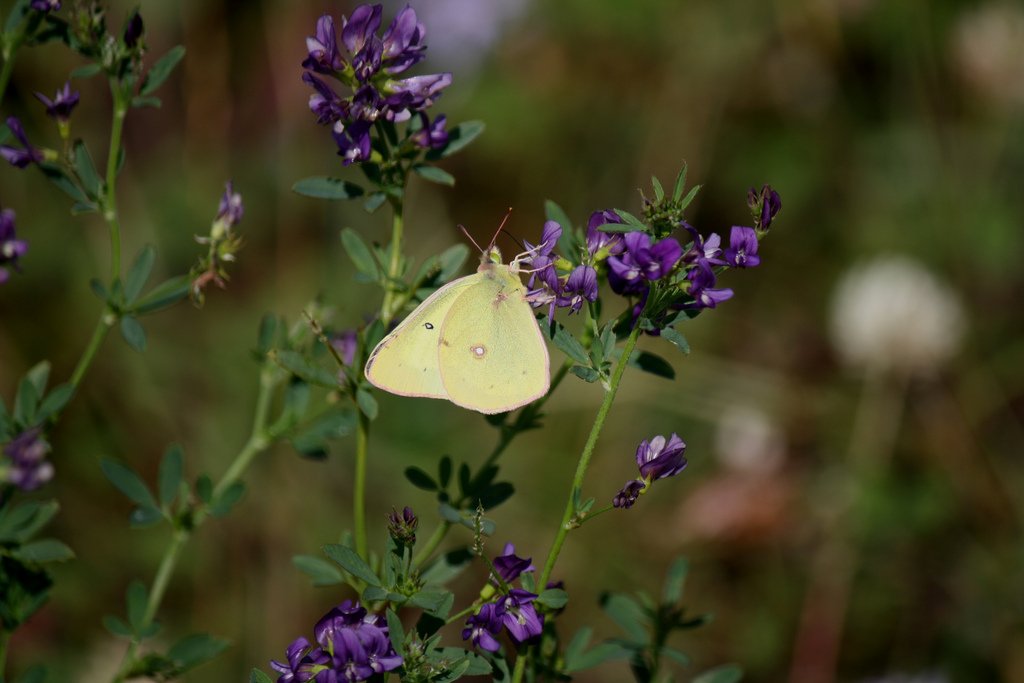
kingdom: Animalia
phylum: Arthropoda
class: Insecta
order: Lepidoptera
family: Pieridae
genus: Colias
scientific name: Colias philodice
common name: Clouded Sulphur
